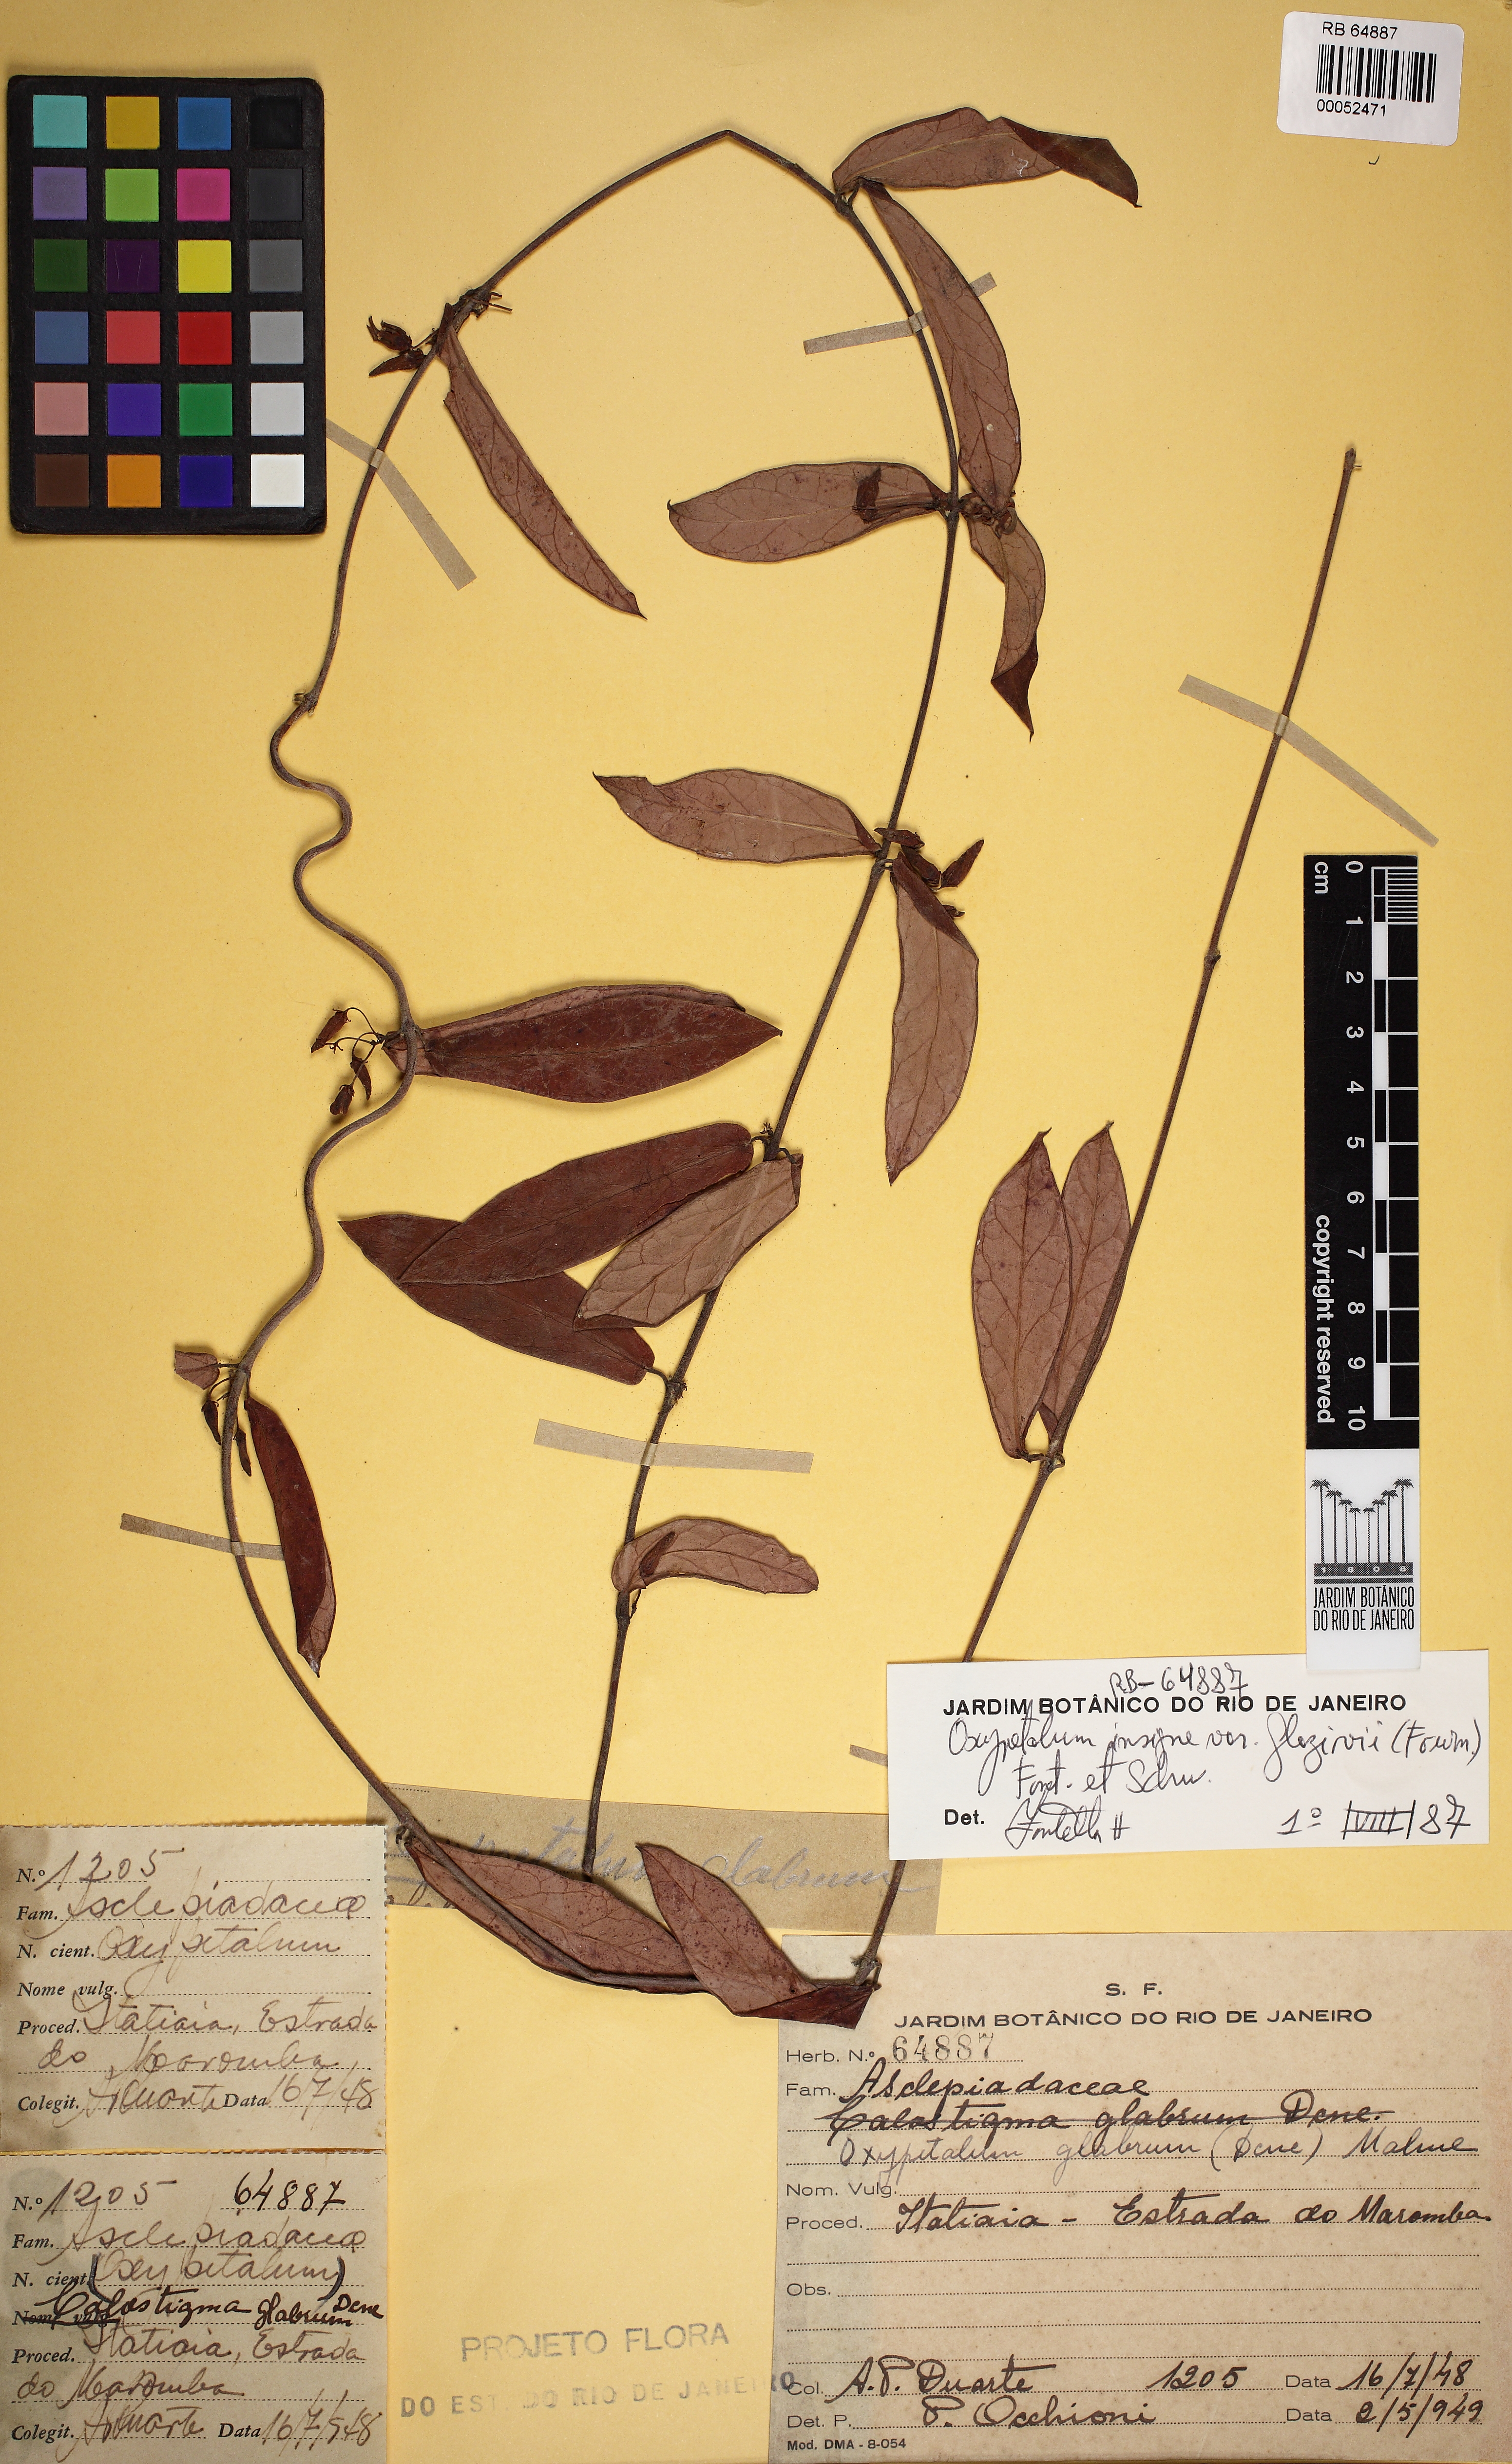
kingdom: Plantae
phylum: Tracheophyta
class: Magnoliopsida
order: Gentianales
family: Apocynaceae
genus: Oxypetalum
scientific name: Oxypetalum insigne
